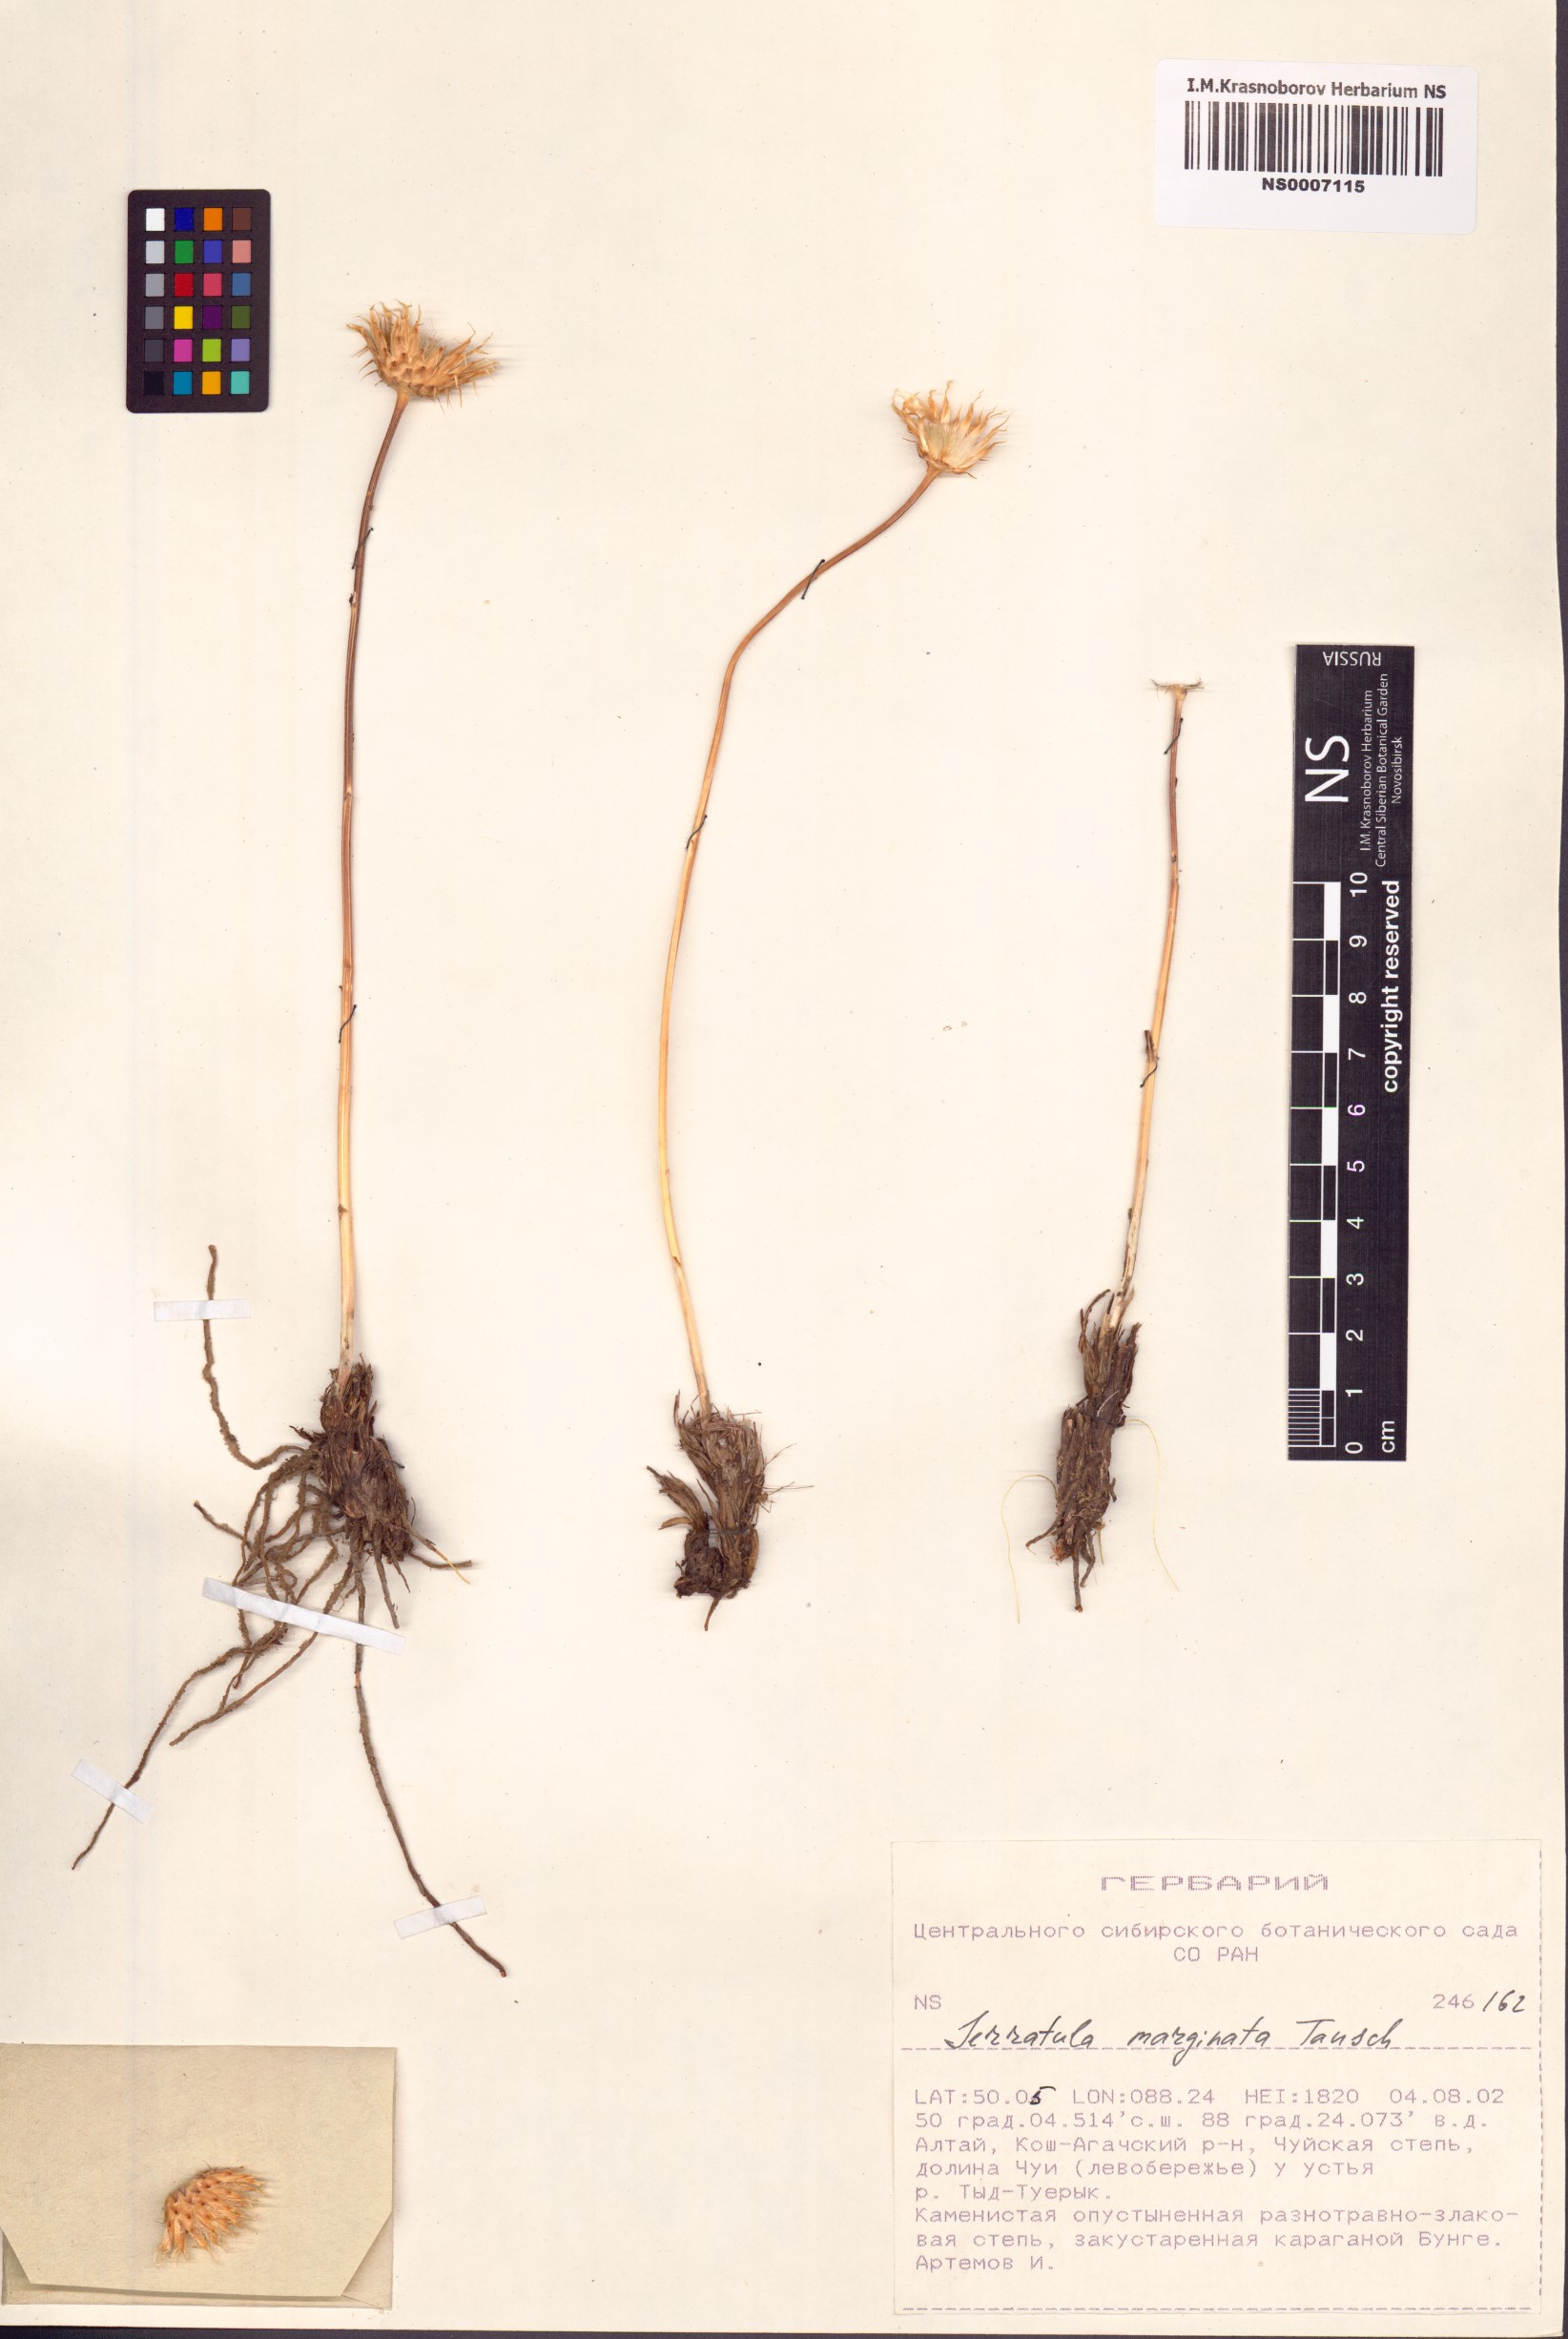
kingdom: Plantae
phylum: Tracheophyta
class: Magnoliopsida
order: Asterales
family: Asteraceae
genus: Klasea
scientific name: Klasea marginata
